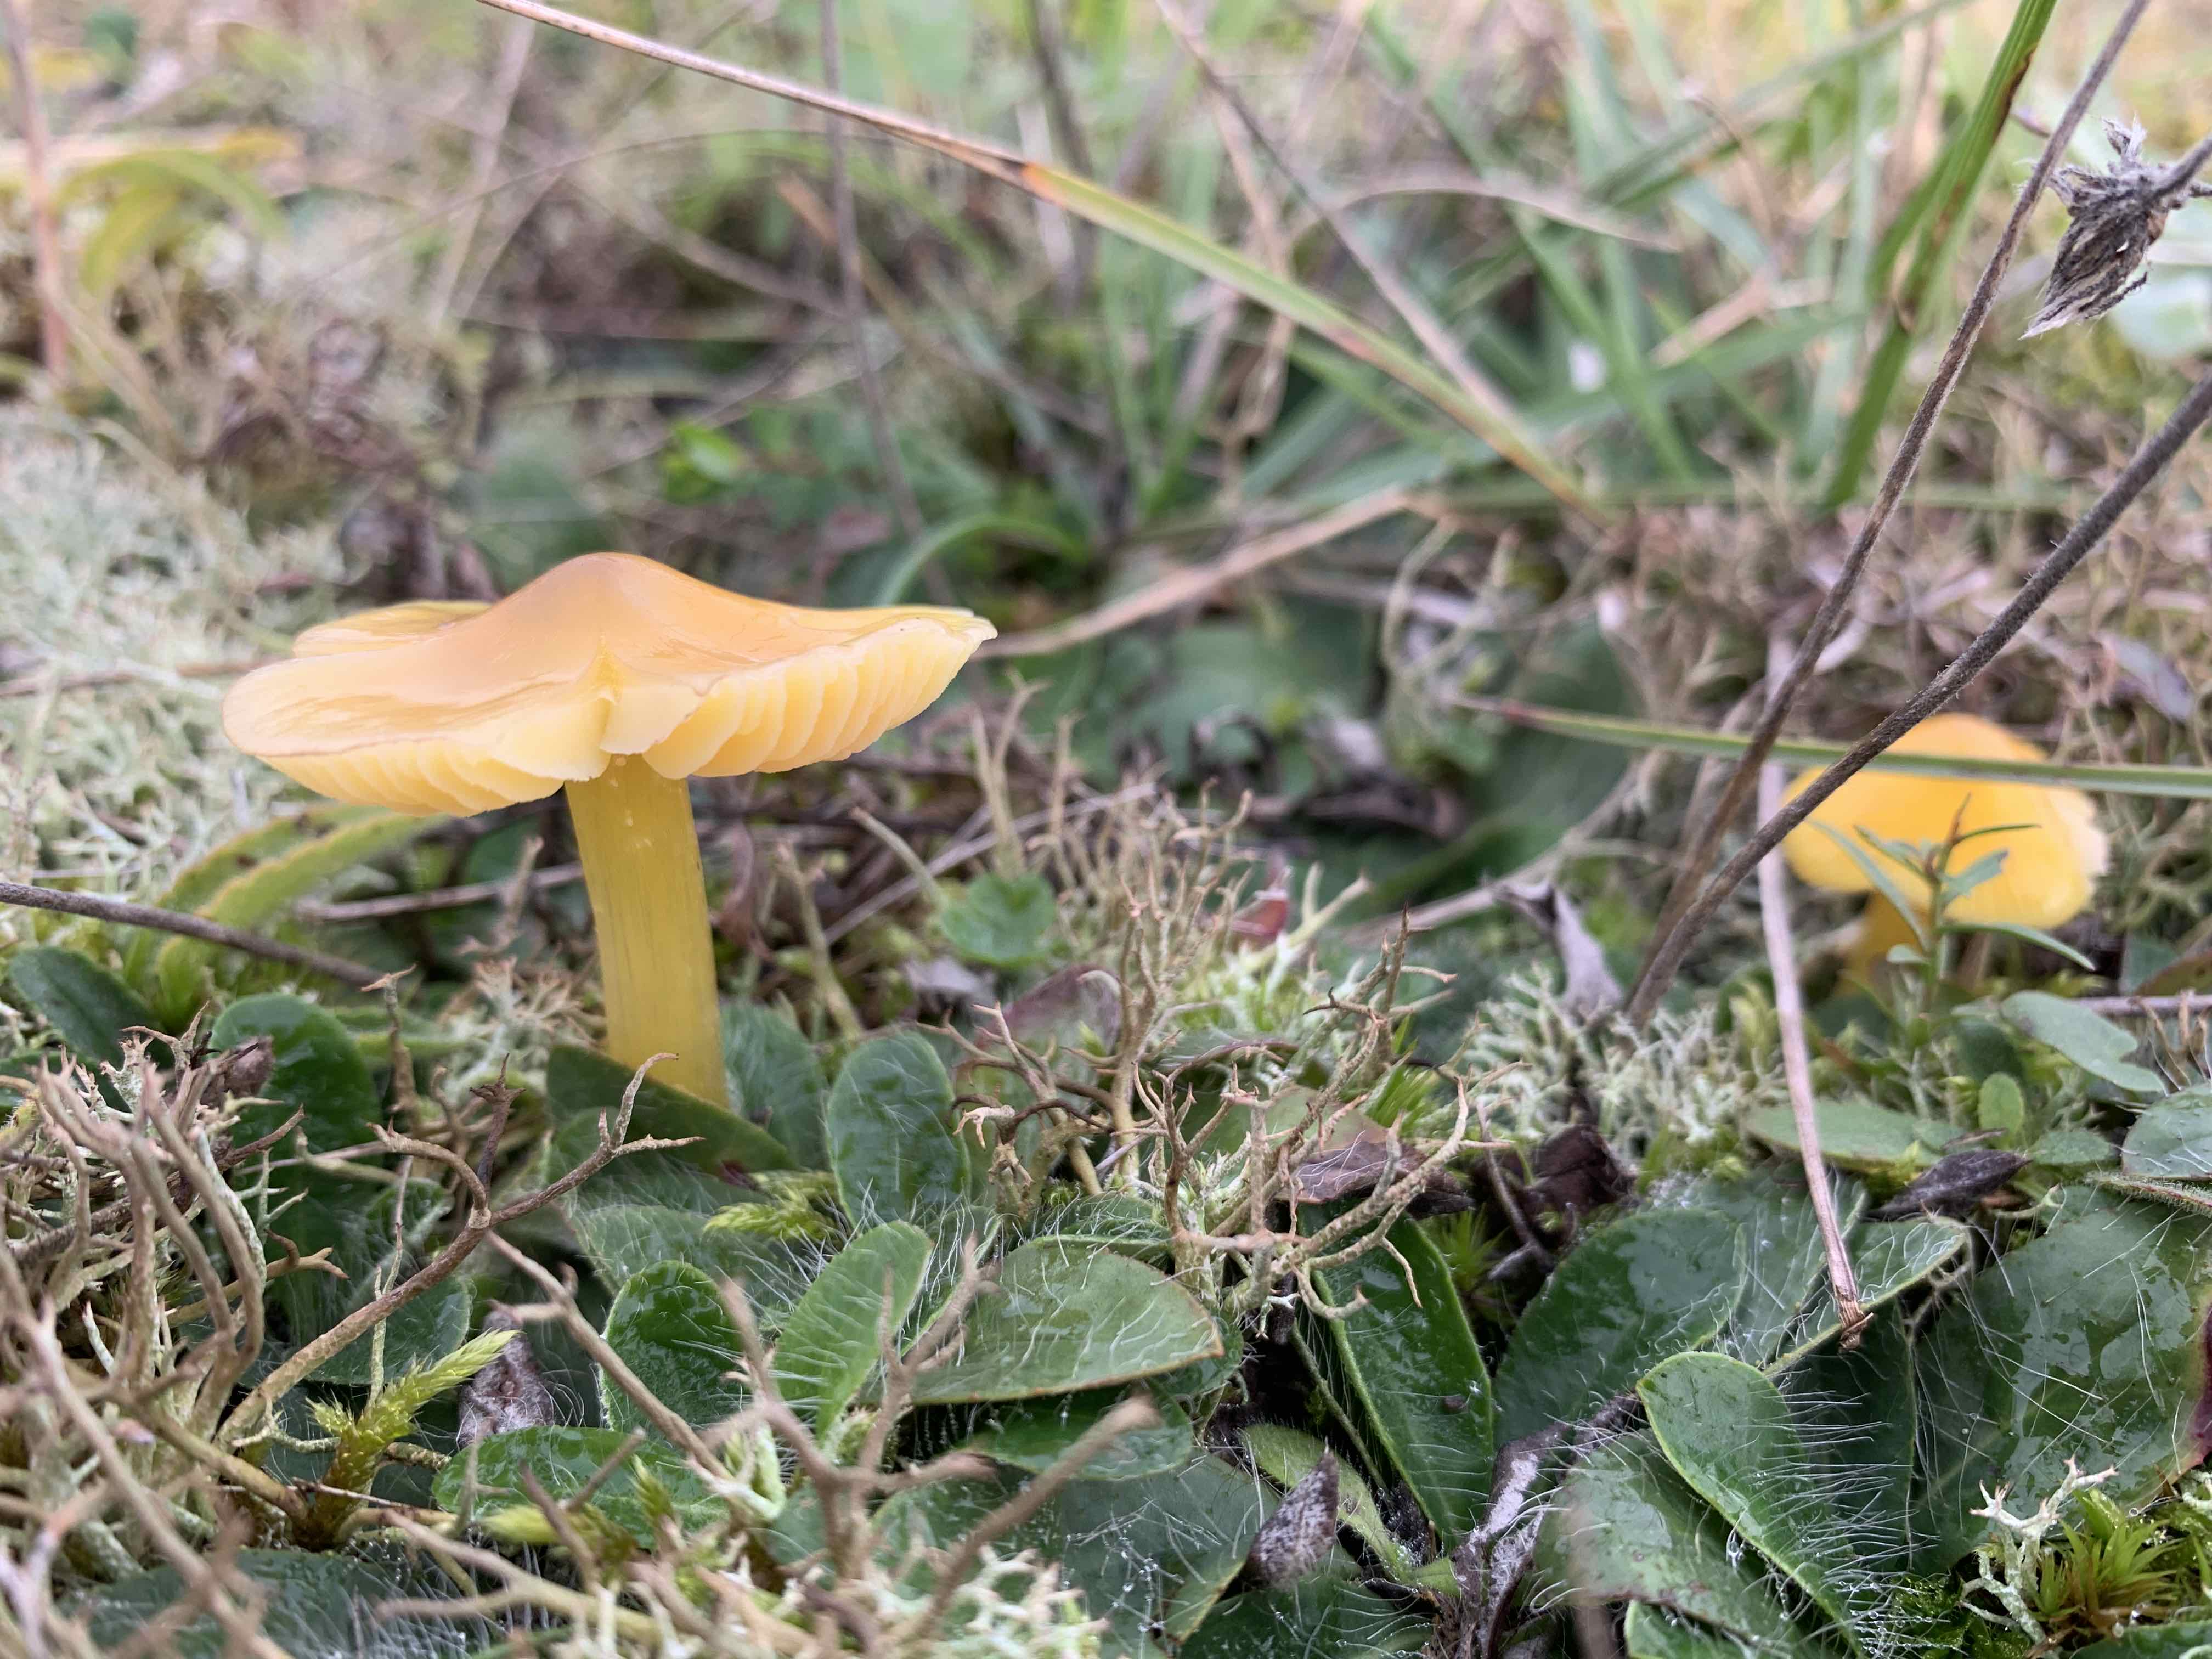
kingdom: Fungi
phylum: Basidiomycota
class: Agaricomycetes
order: Agaricales
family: Hygrophoraceae
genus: Hygrocybe
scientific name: Hygrocybe acutoconica
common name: spidspuklet vokshat
